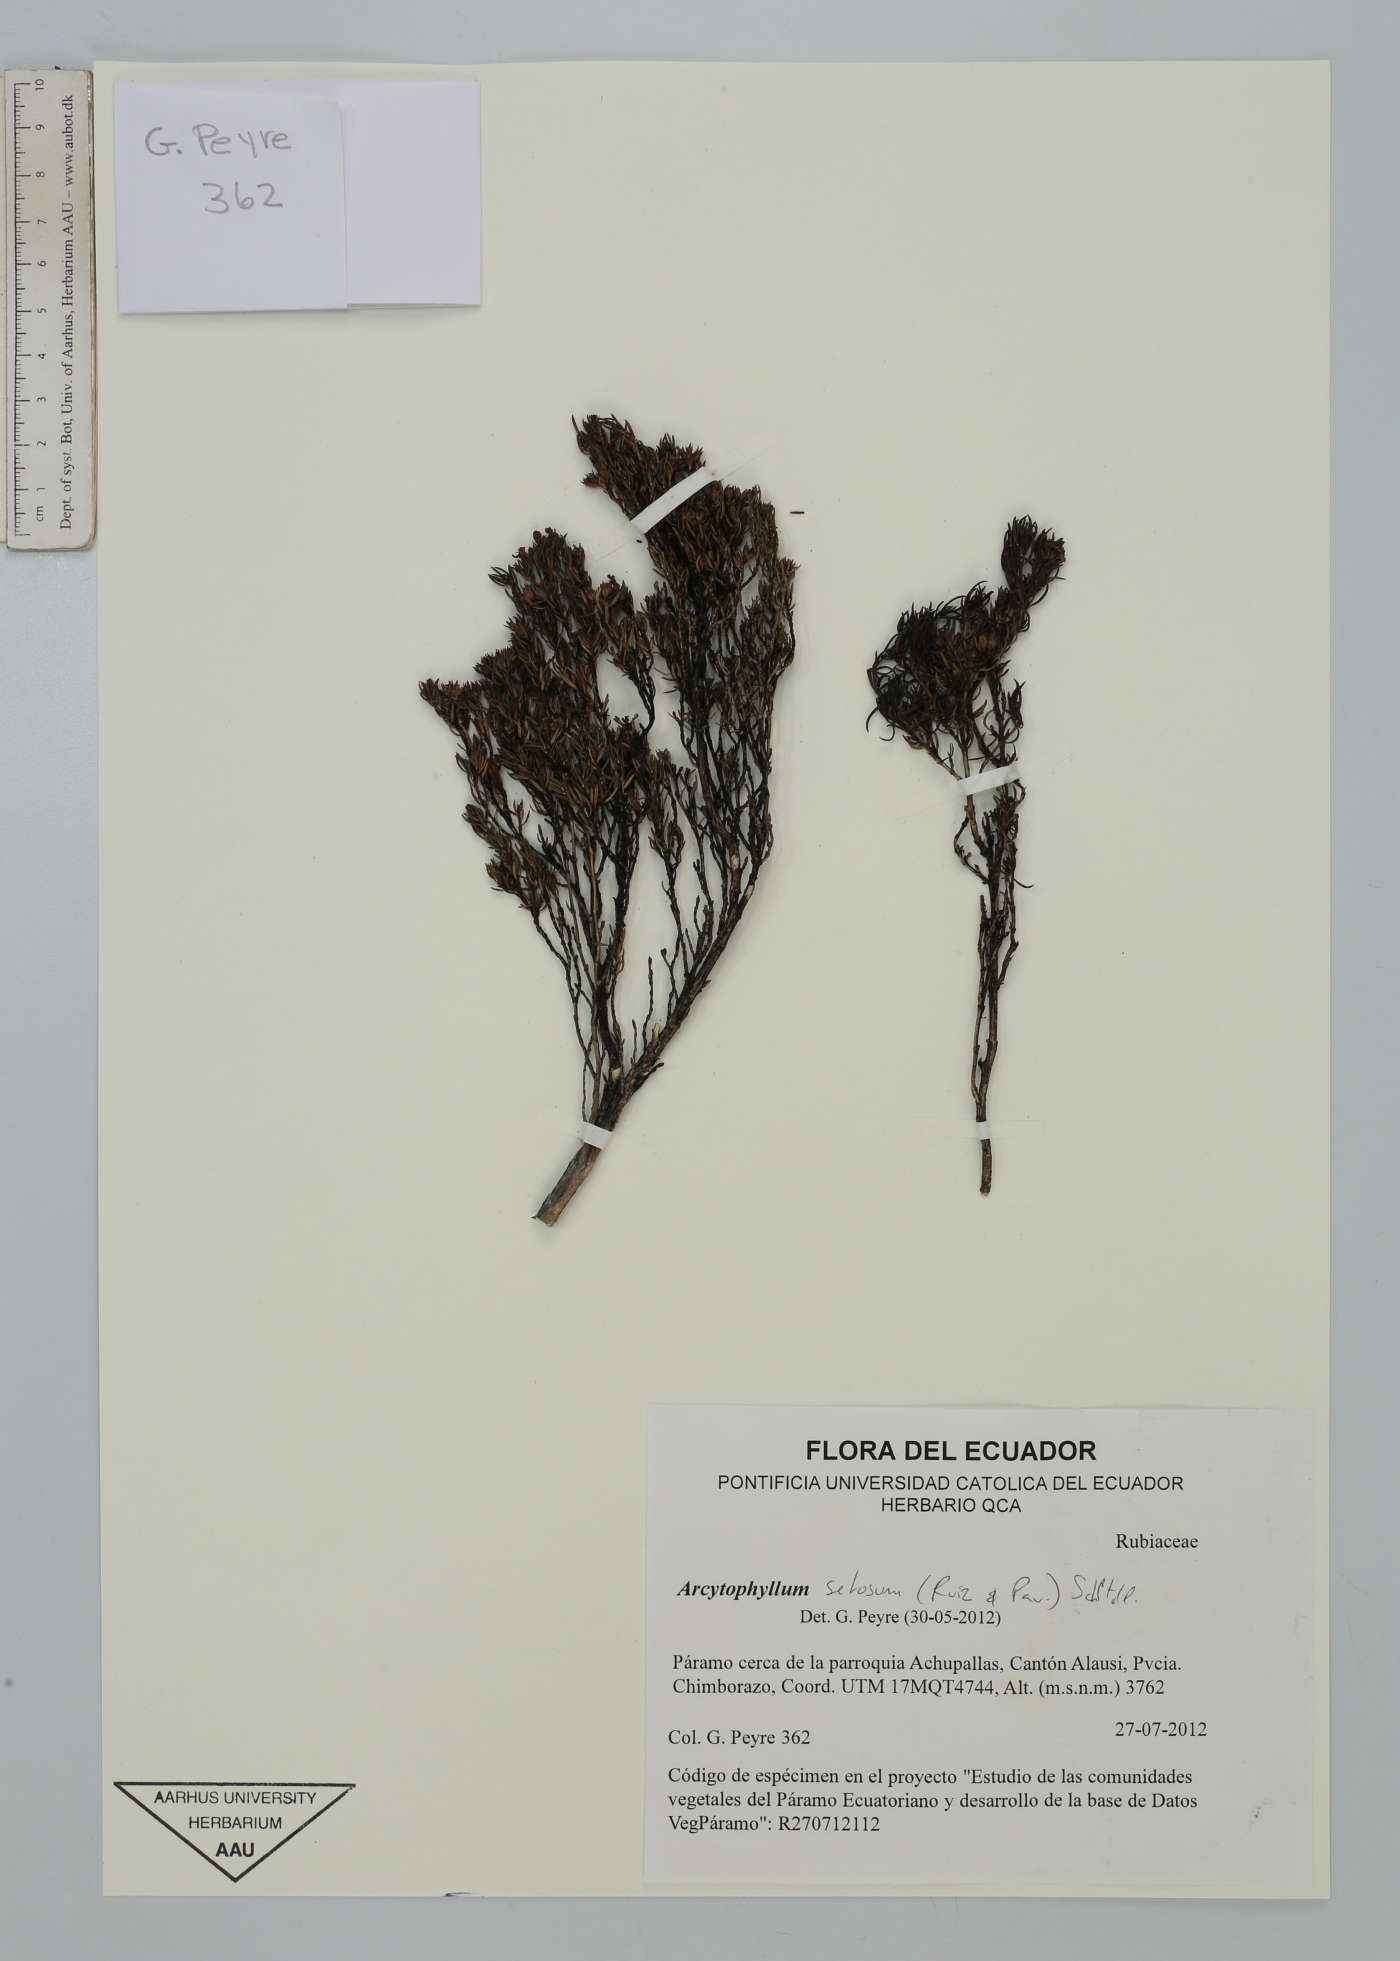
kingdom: Plantae
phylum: Tracheophyta
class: Magnoliopsida
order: Gentianales
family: Rubiaceae
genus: Arcytophyllum
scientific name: Arcytophyllum setosum
